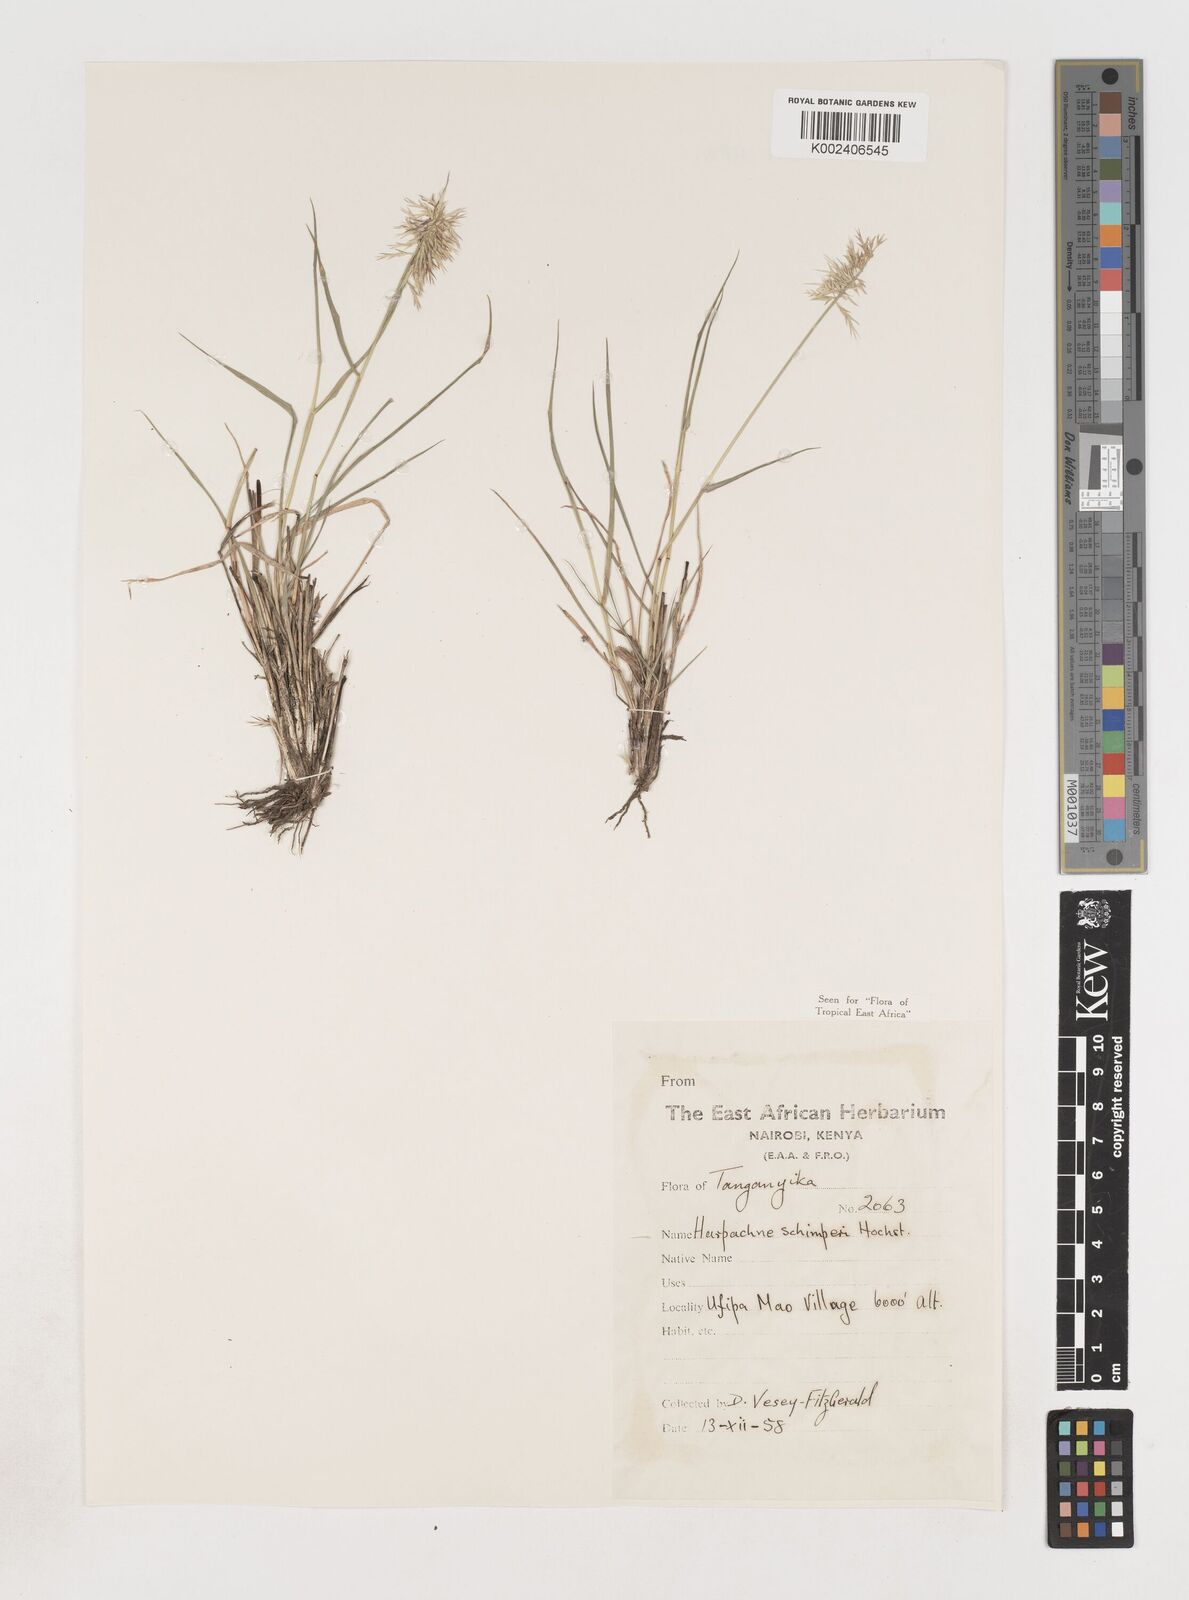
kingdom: Plantae
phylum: Tracheophyta
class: Liliopsida
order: Poales
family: Poaceae
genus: Harpachne
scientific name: Harpachne schimperi
